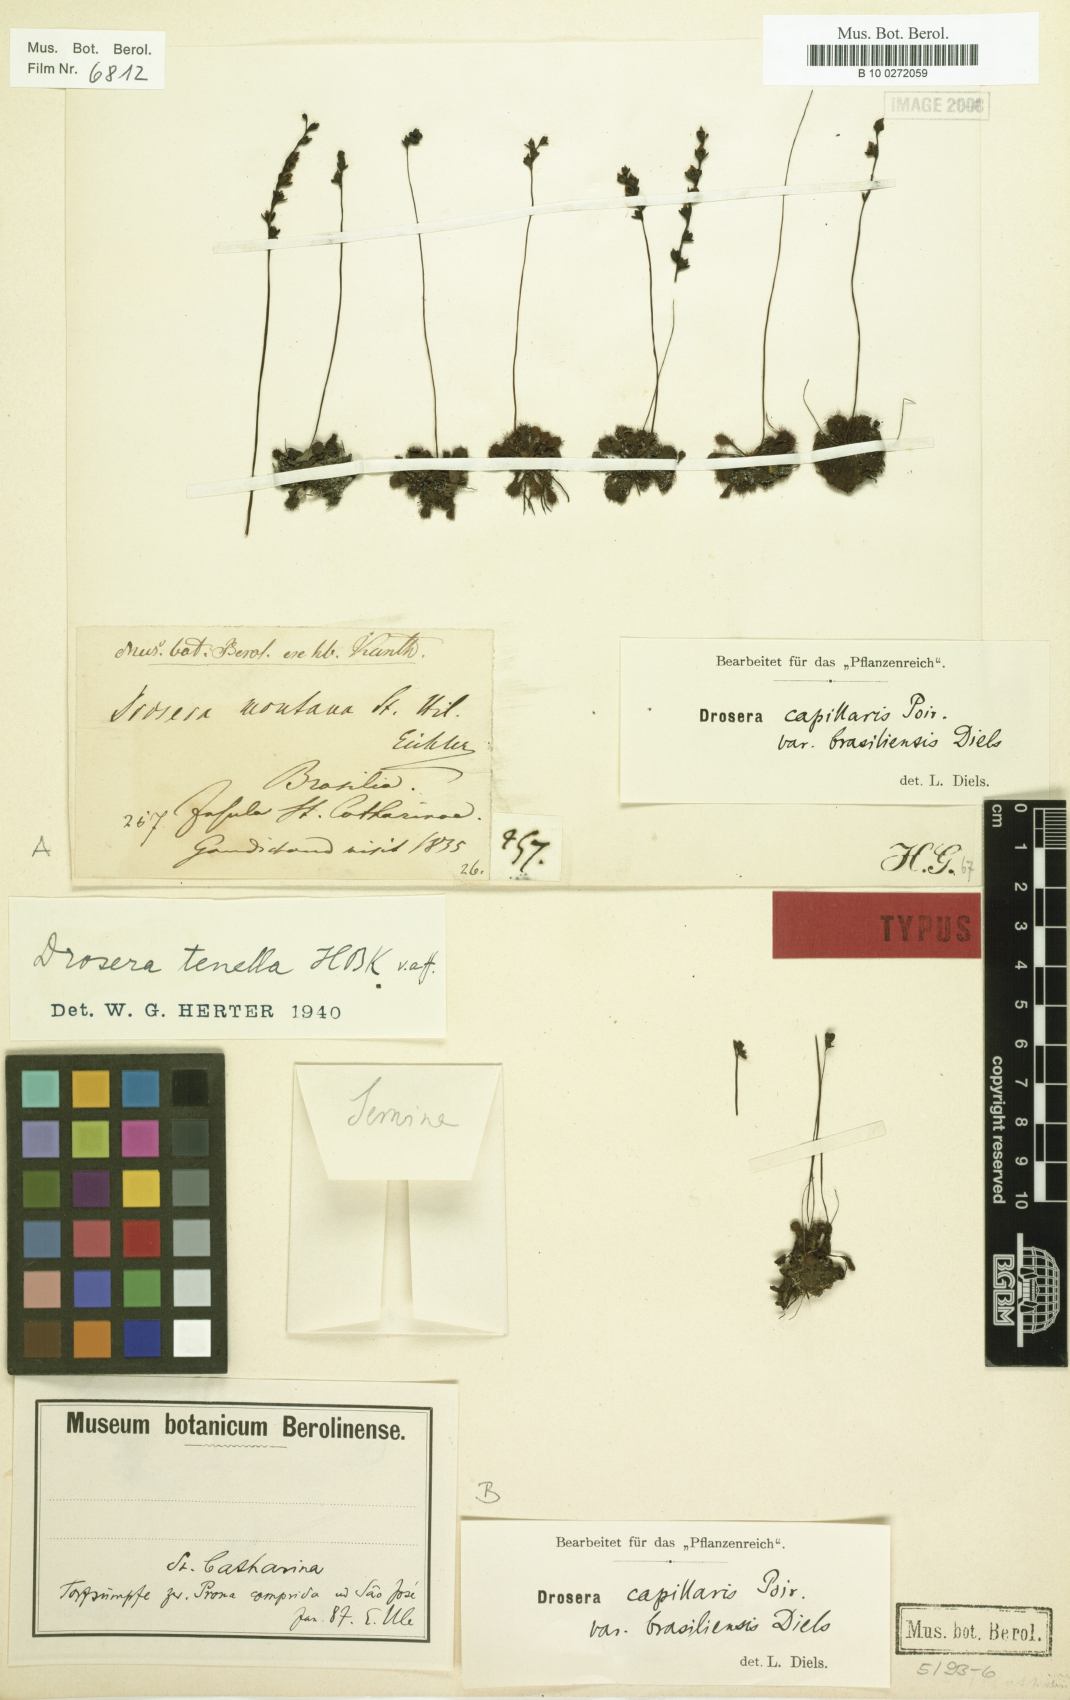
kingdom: Plantae
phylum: Tracheophyta
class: Magnoliopsida
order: Caryophyllales
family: Droseraceae
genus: Drosera
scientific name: Drosera capillaris
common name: Pink sundew
